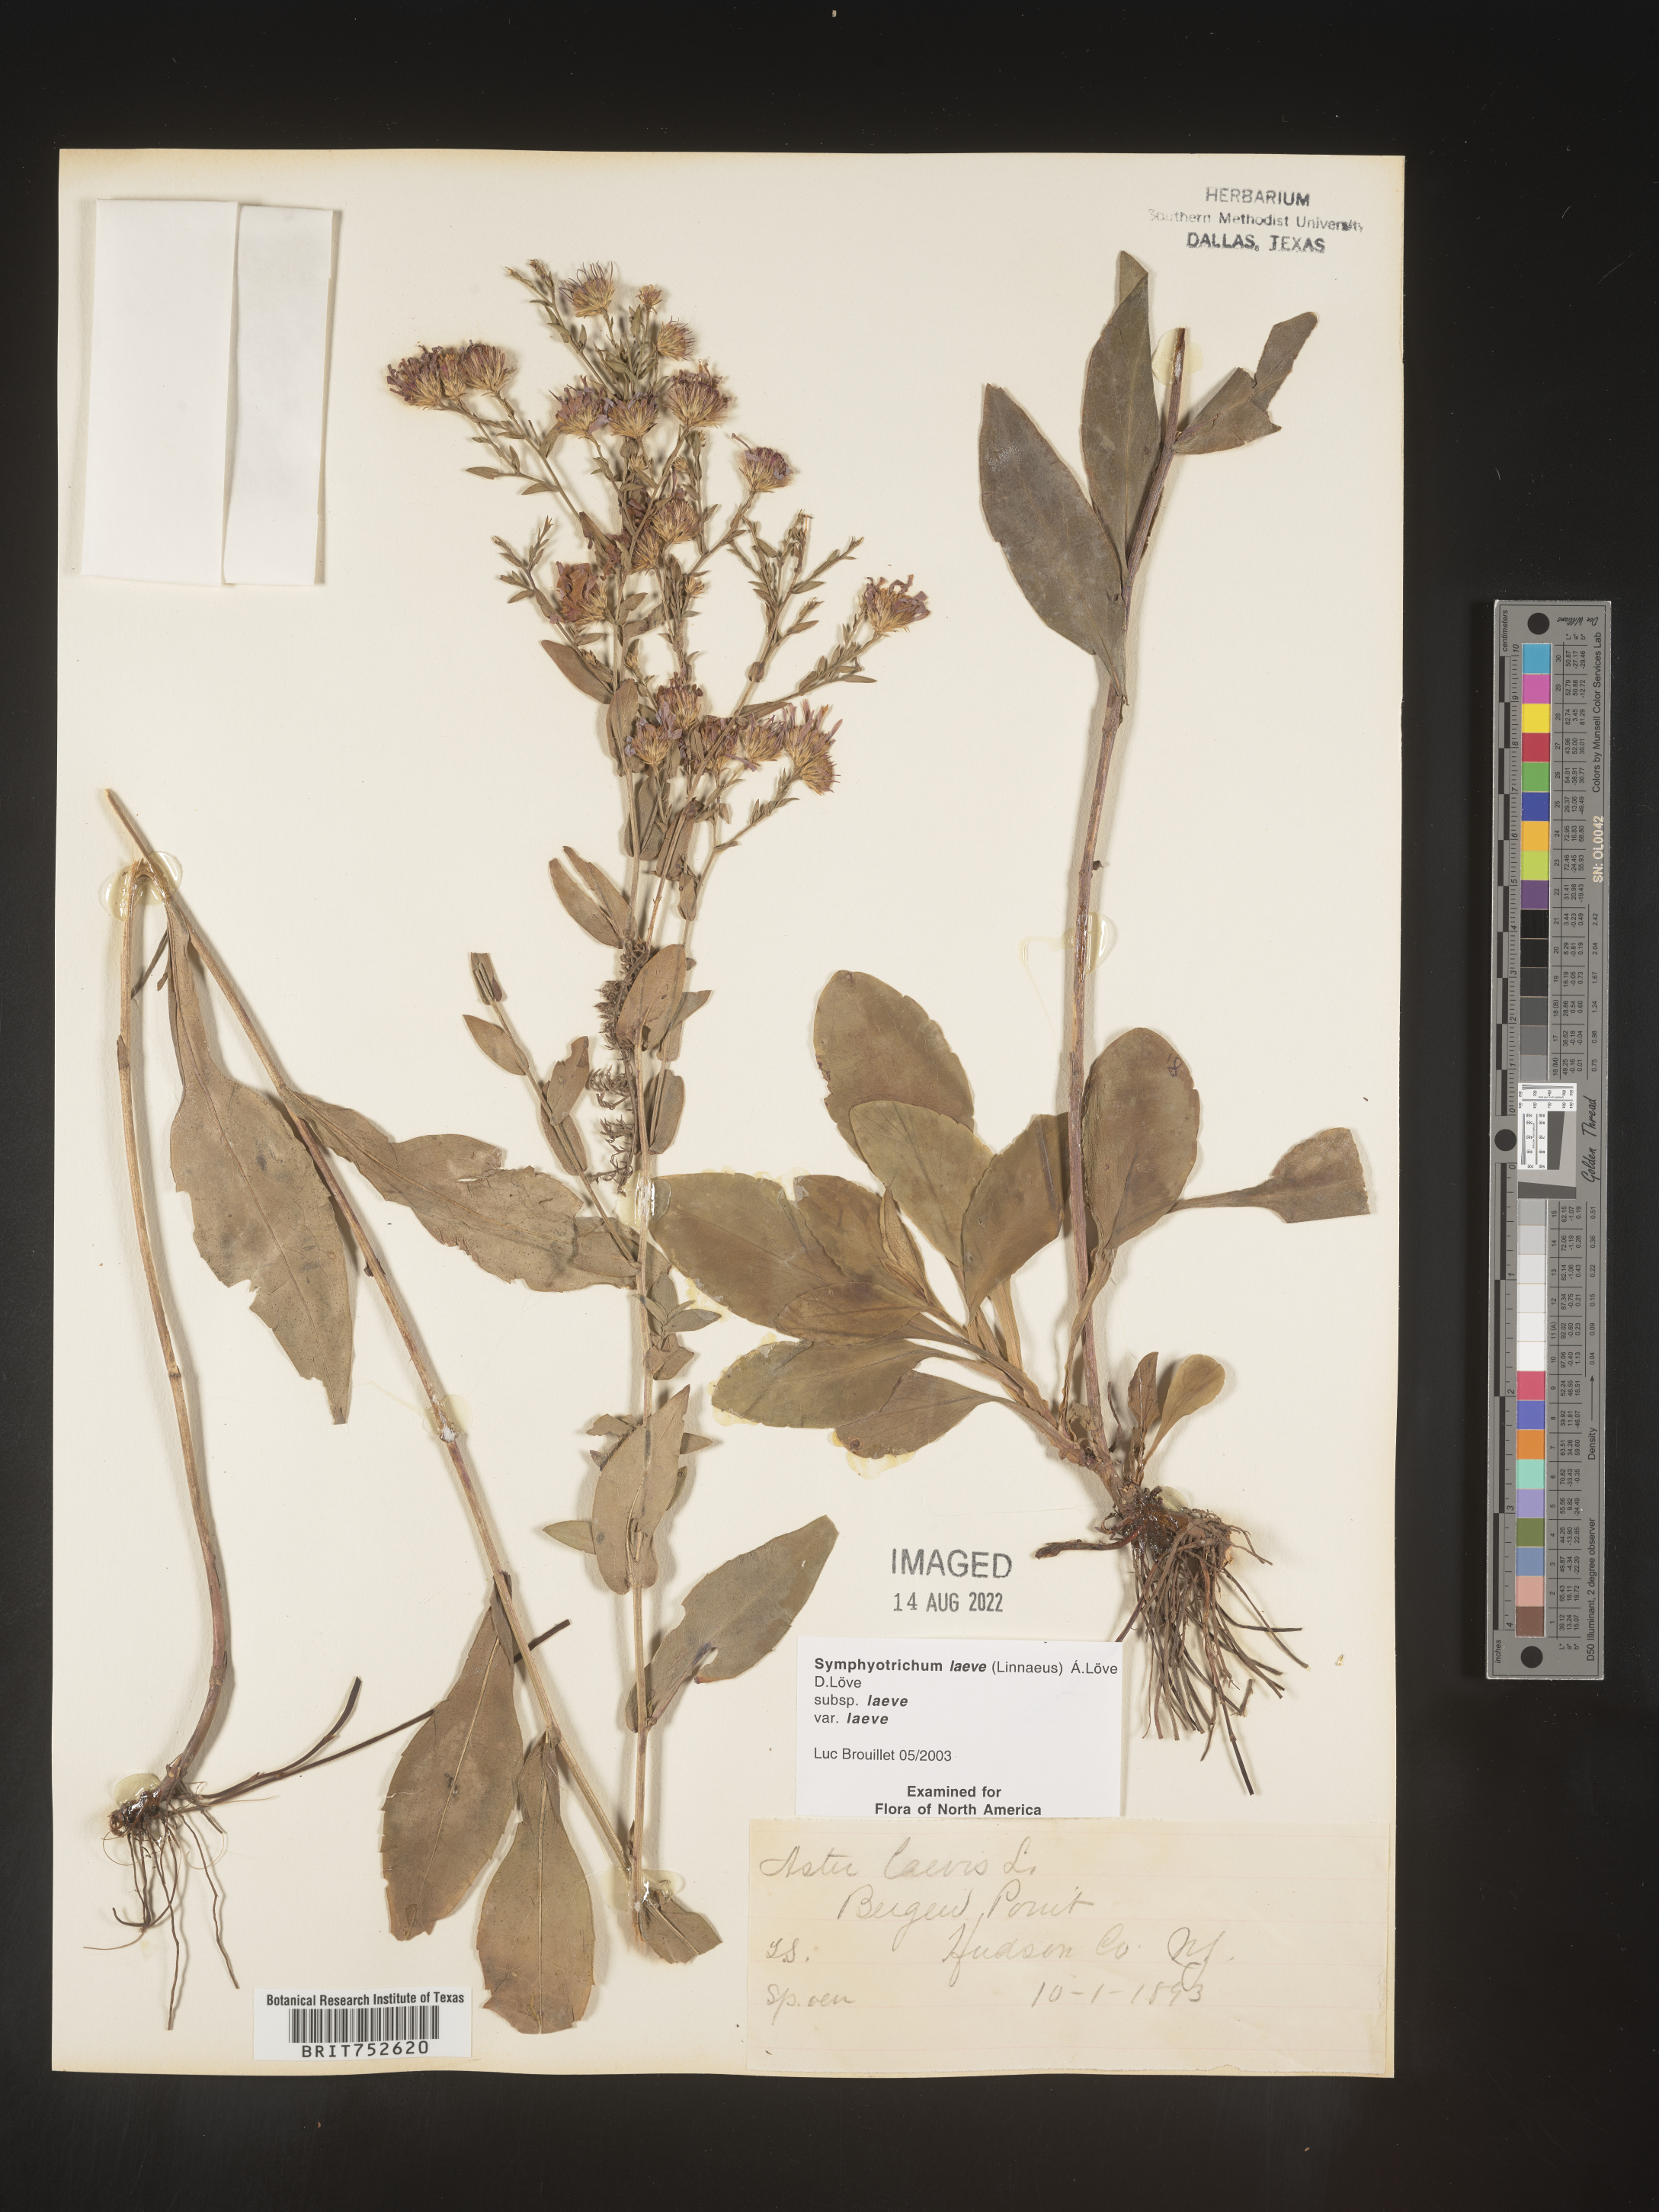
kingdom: Plantae
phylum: Tracheophyta
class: Magnoliopsida
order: Asterales
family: Asteraceae
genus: Symphyotrichum
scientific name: Symphyotrichum laeve
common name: Glaucous aster
